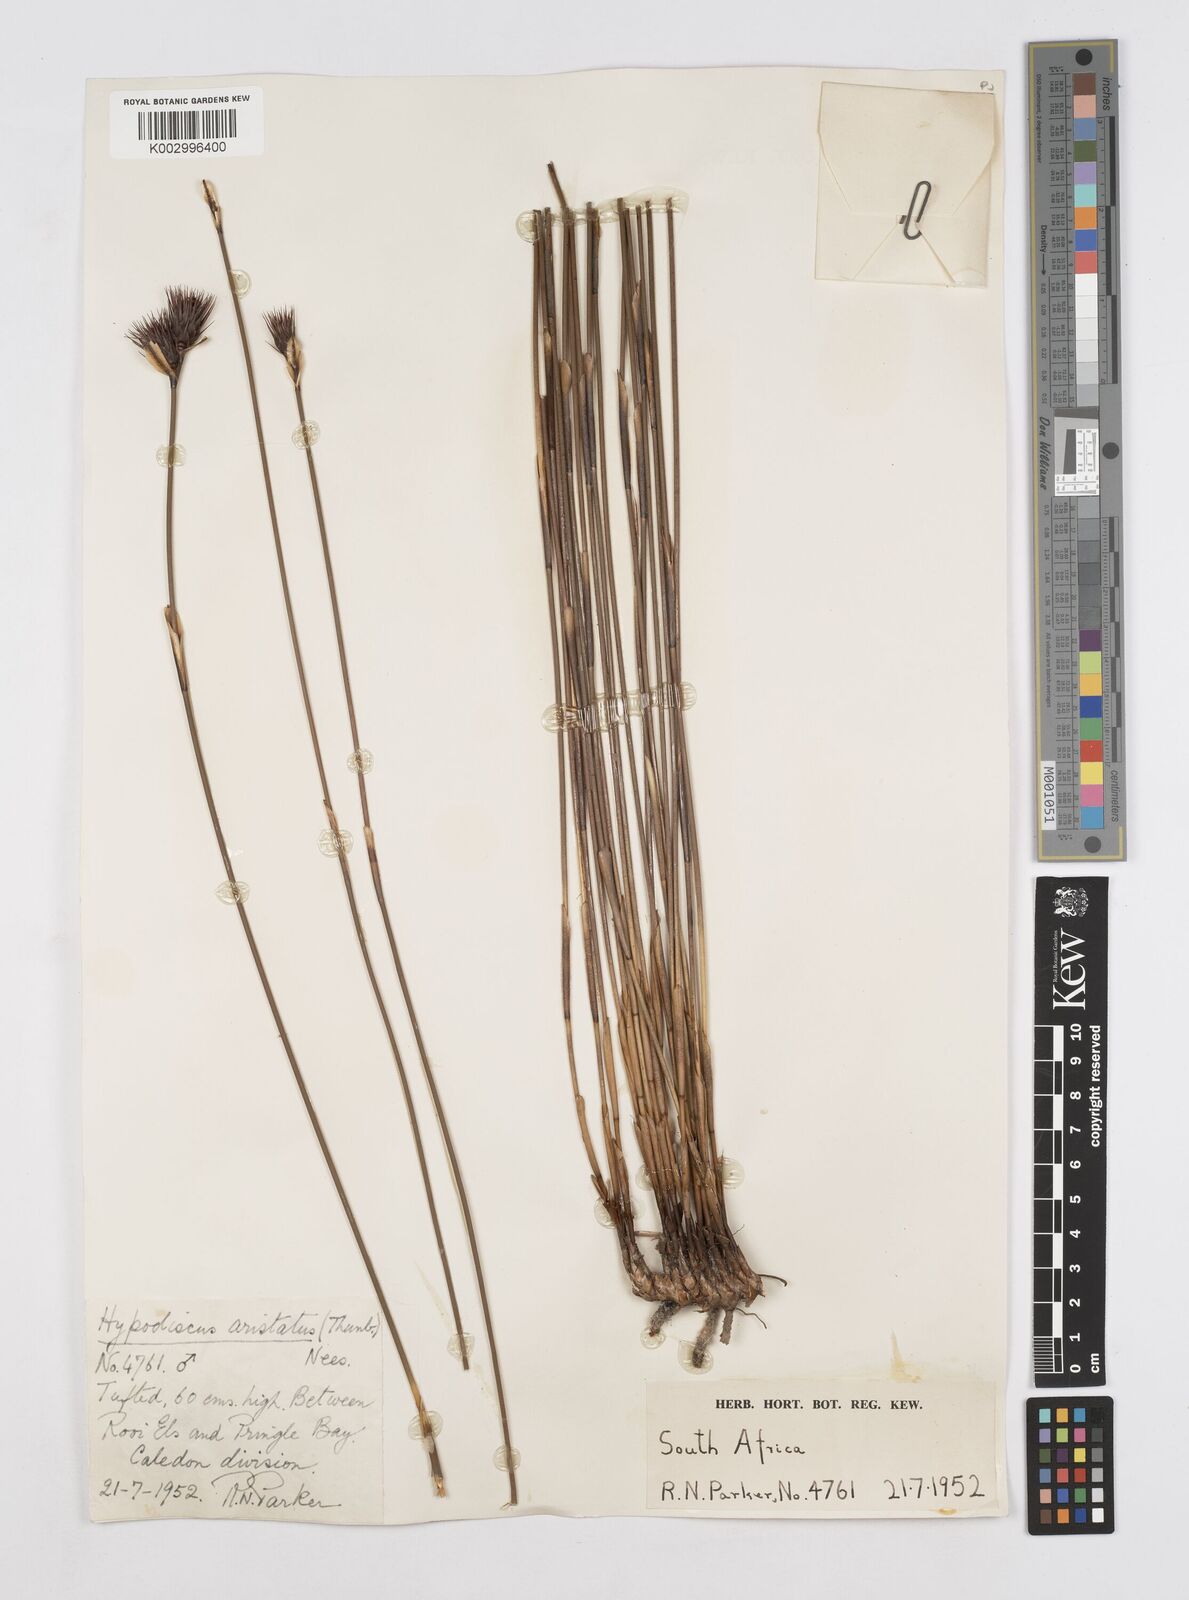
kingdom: Plantae
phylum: Tracheophyta
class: Liliopsida
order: Poales
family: Restionaceae
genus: Hypodiscus
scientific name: Hypodiscus aristatus
